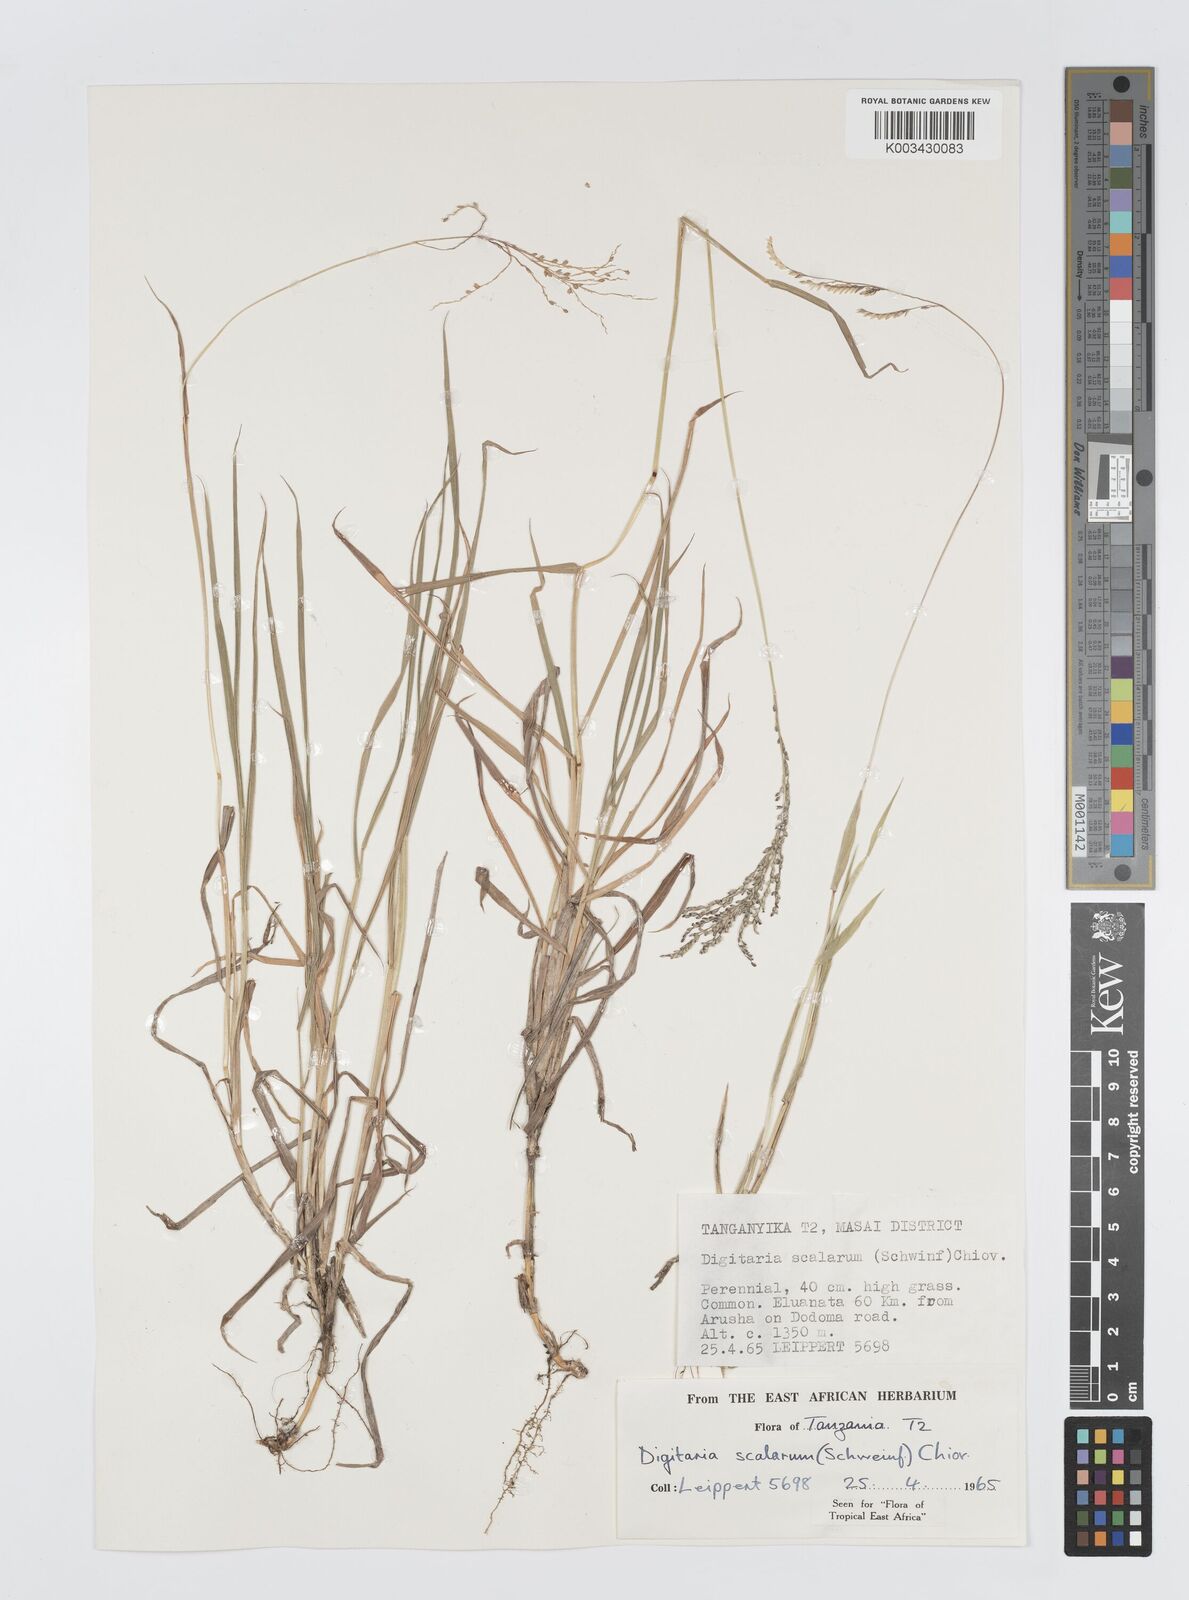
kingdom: Plantae
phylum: Tracheophyta
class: Liliopsida
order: Poales
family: Poaceae
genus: Digitaria
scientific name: Digitaria abyssinica
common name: African couchgrass
